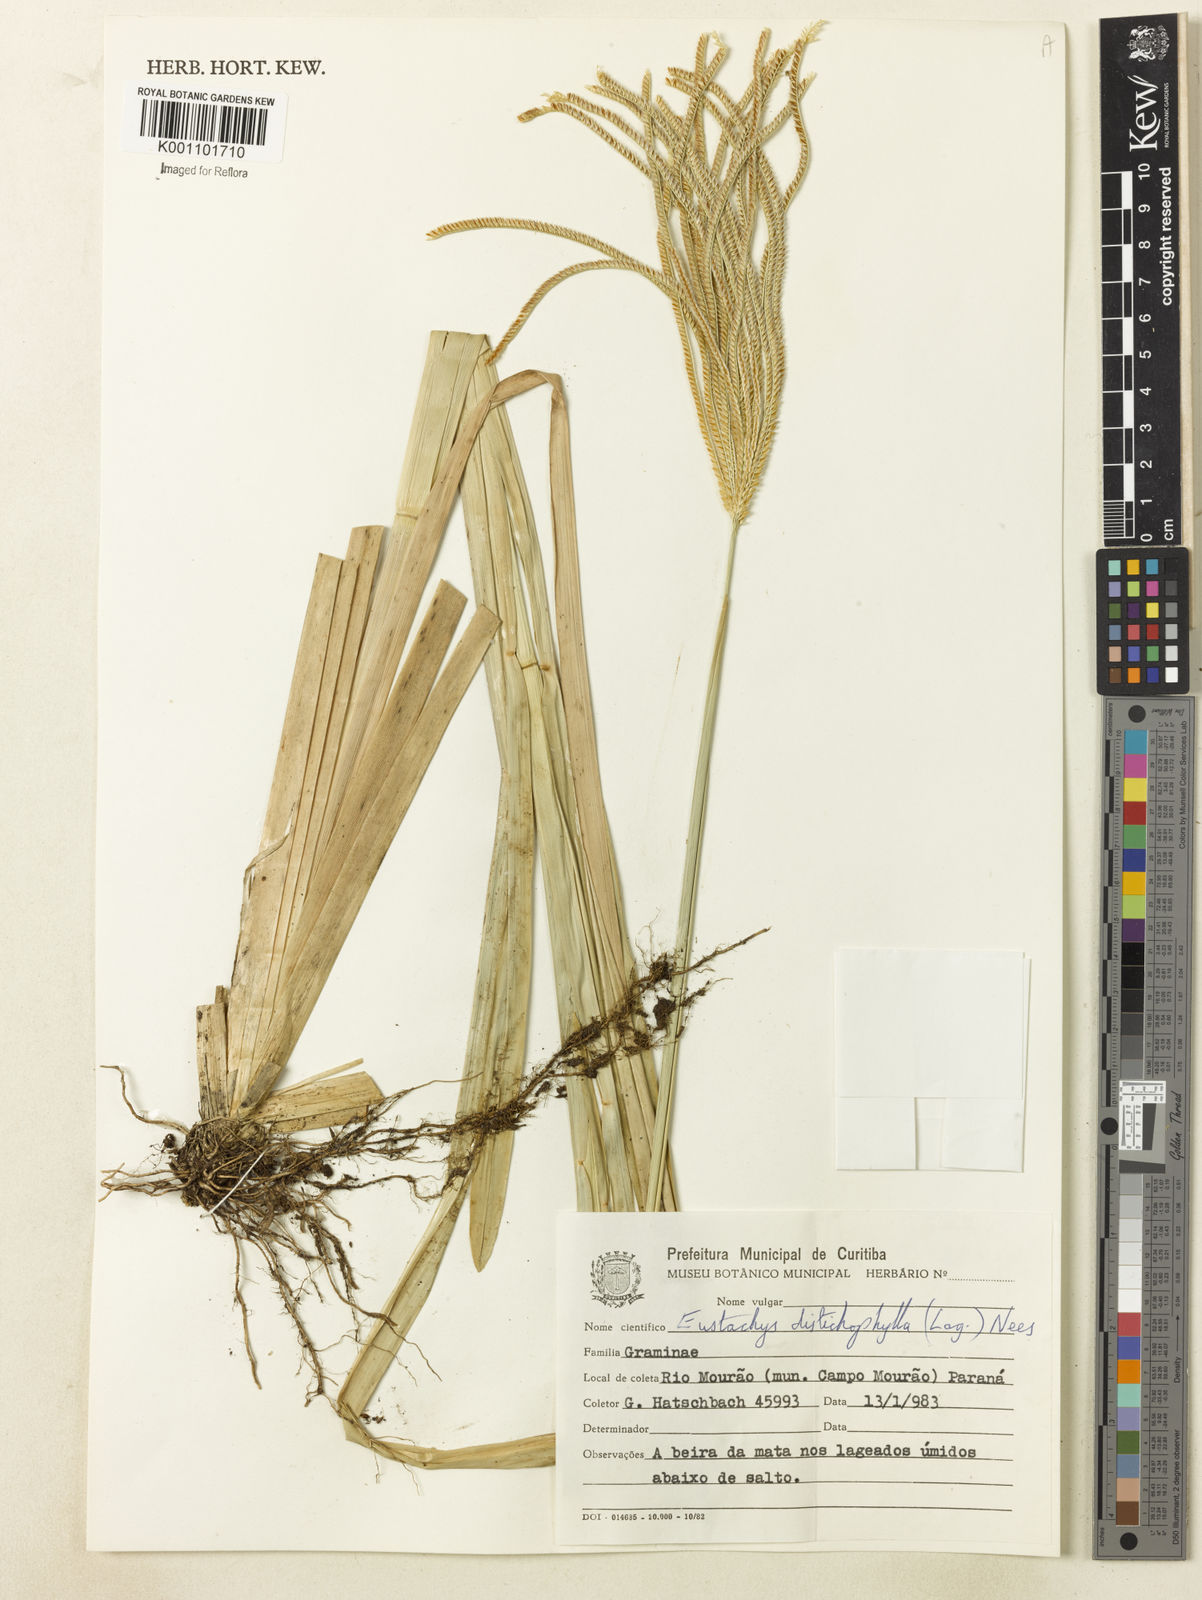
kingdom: Plantae
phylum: Tracheophyta
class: Liliopsida
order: Poales
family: Poaceae
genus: Eustachys
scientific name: Eustachys distichophylla
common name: Weeping fingergrass
